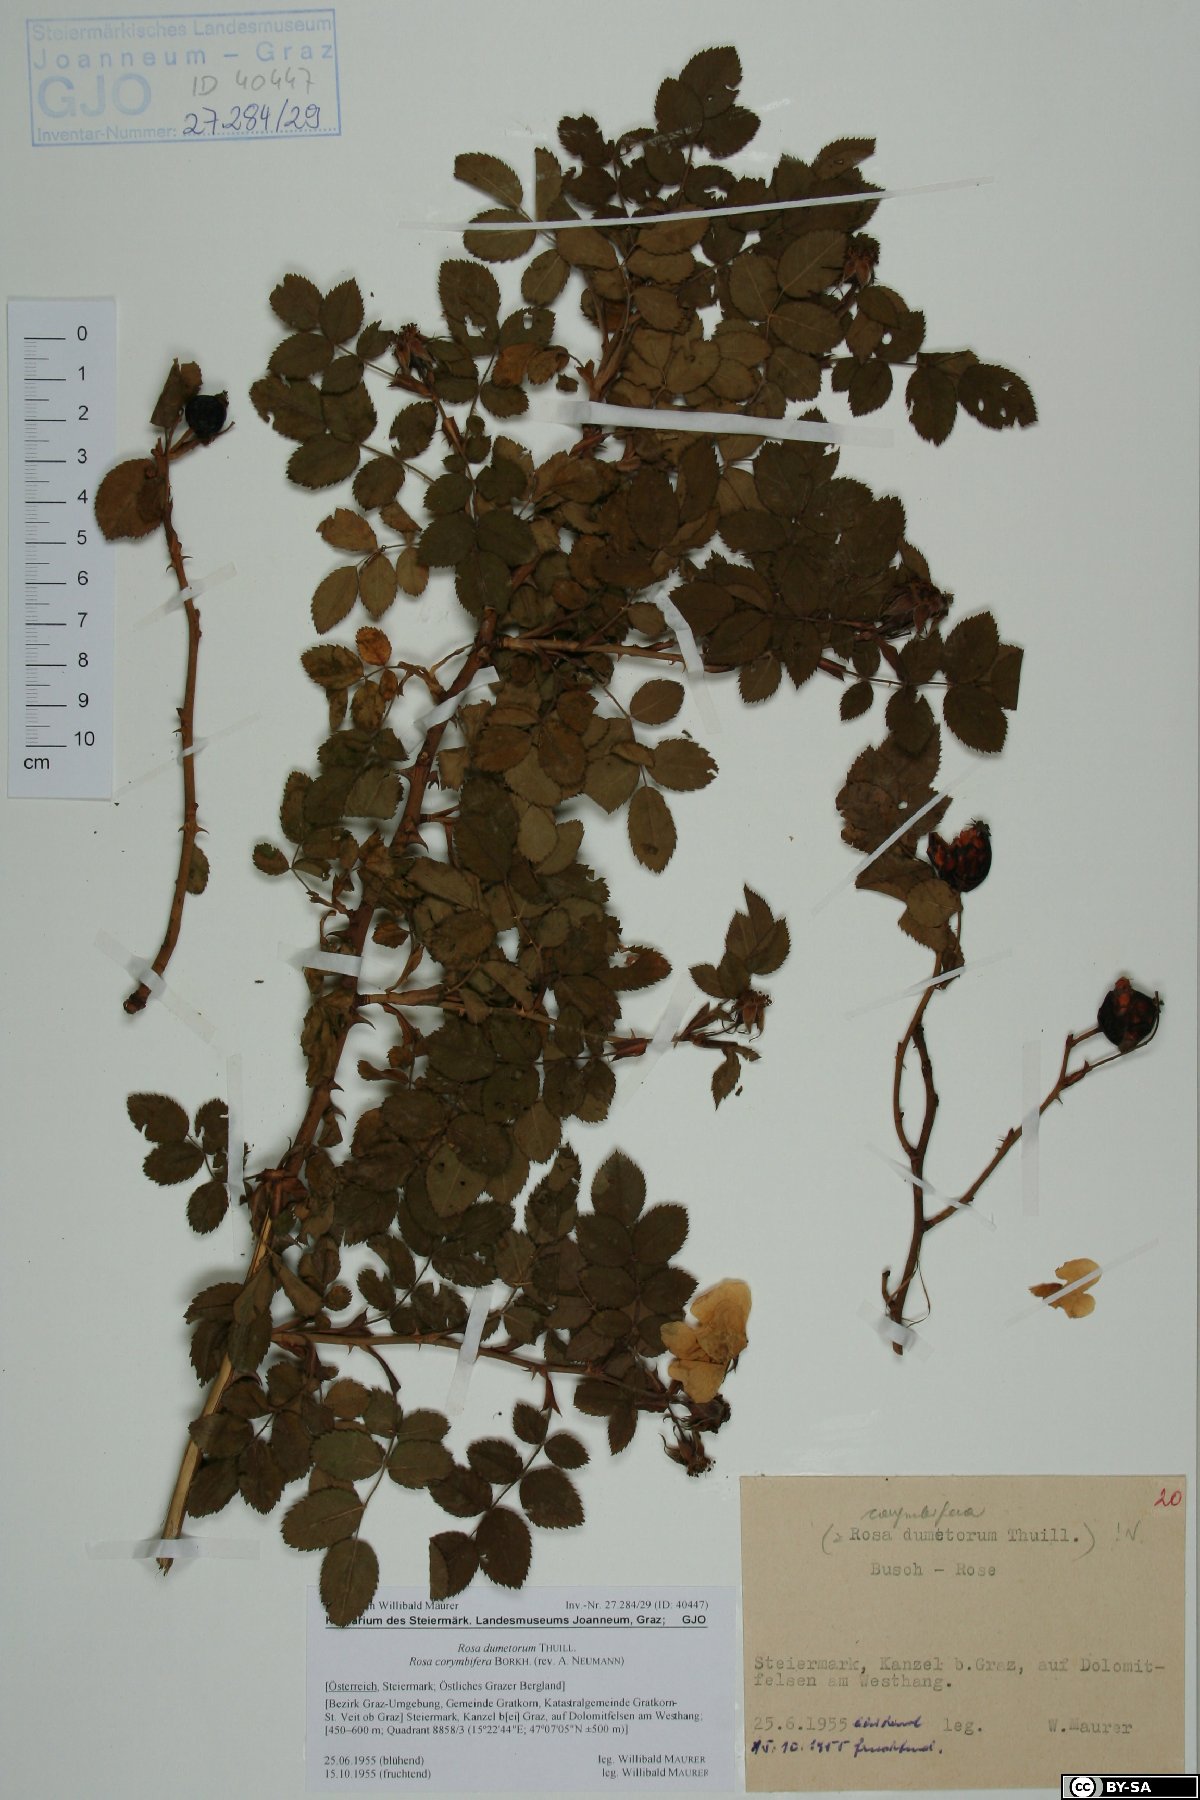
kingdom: Plantae
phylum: Tracheophyta
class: Magnoliopsida
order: Rosales
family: Rosaceae
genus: Rosa
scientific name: Rosa corymbifera
